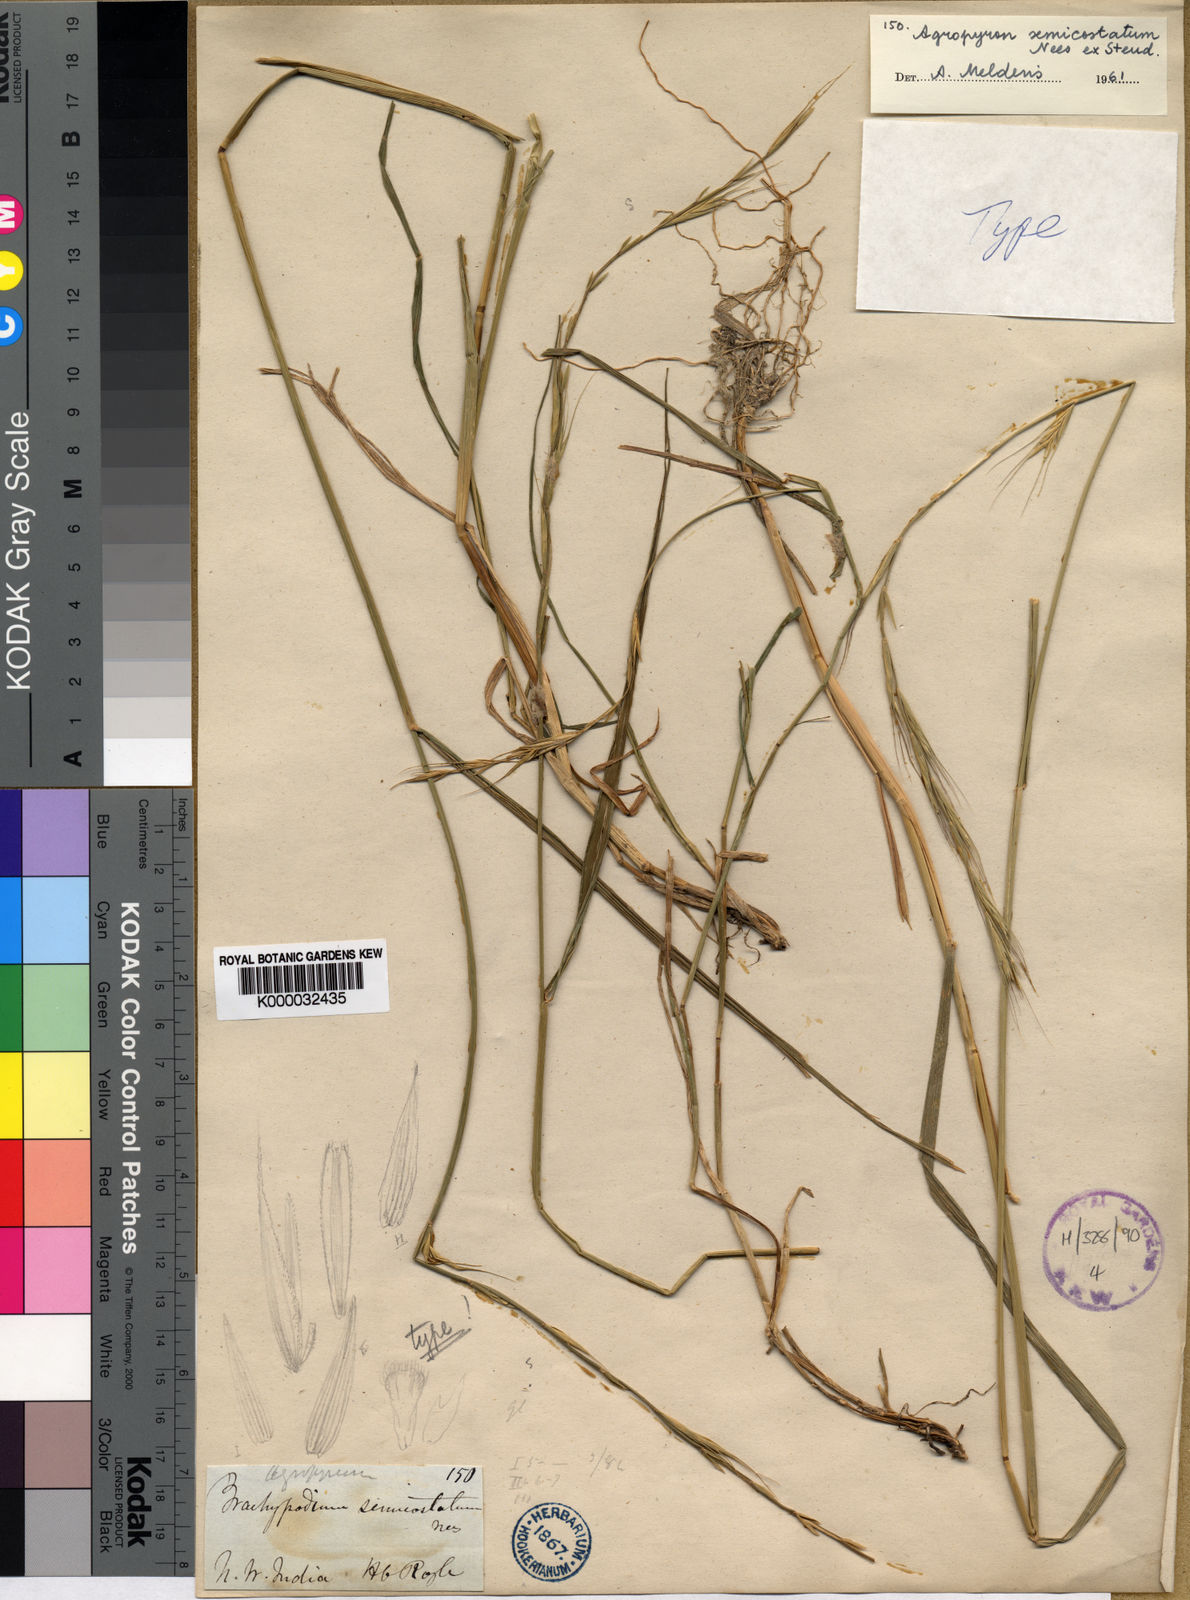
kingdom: Plantae
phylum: Tracheophyta
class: Liliopsida
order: Poales
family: Poaceae
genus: Elymus
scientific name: Elymus semicostatus
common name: Drooping wildrye
